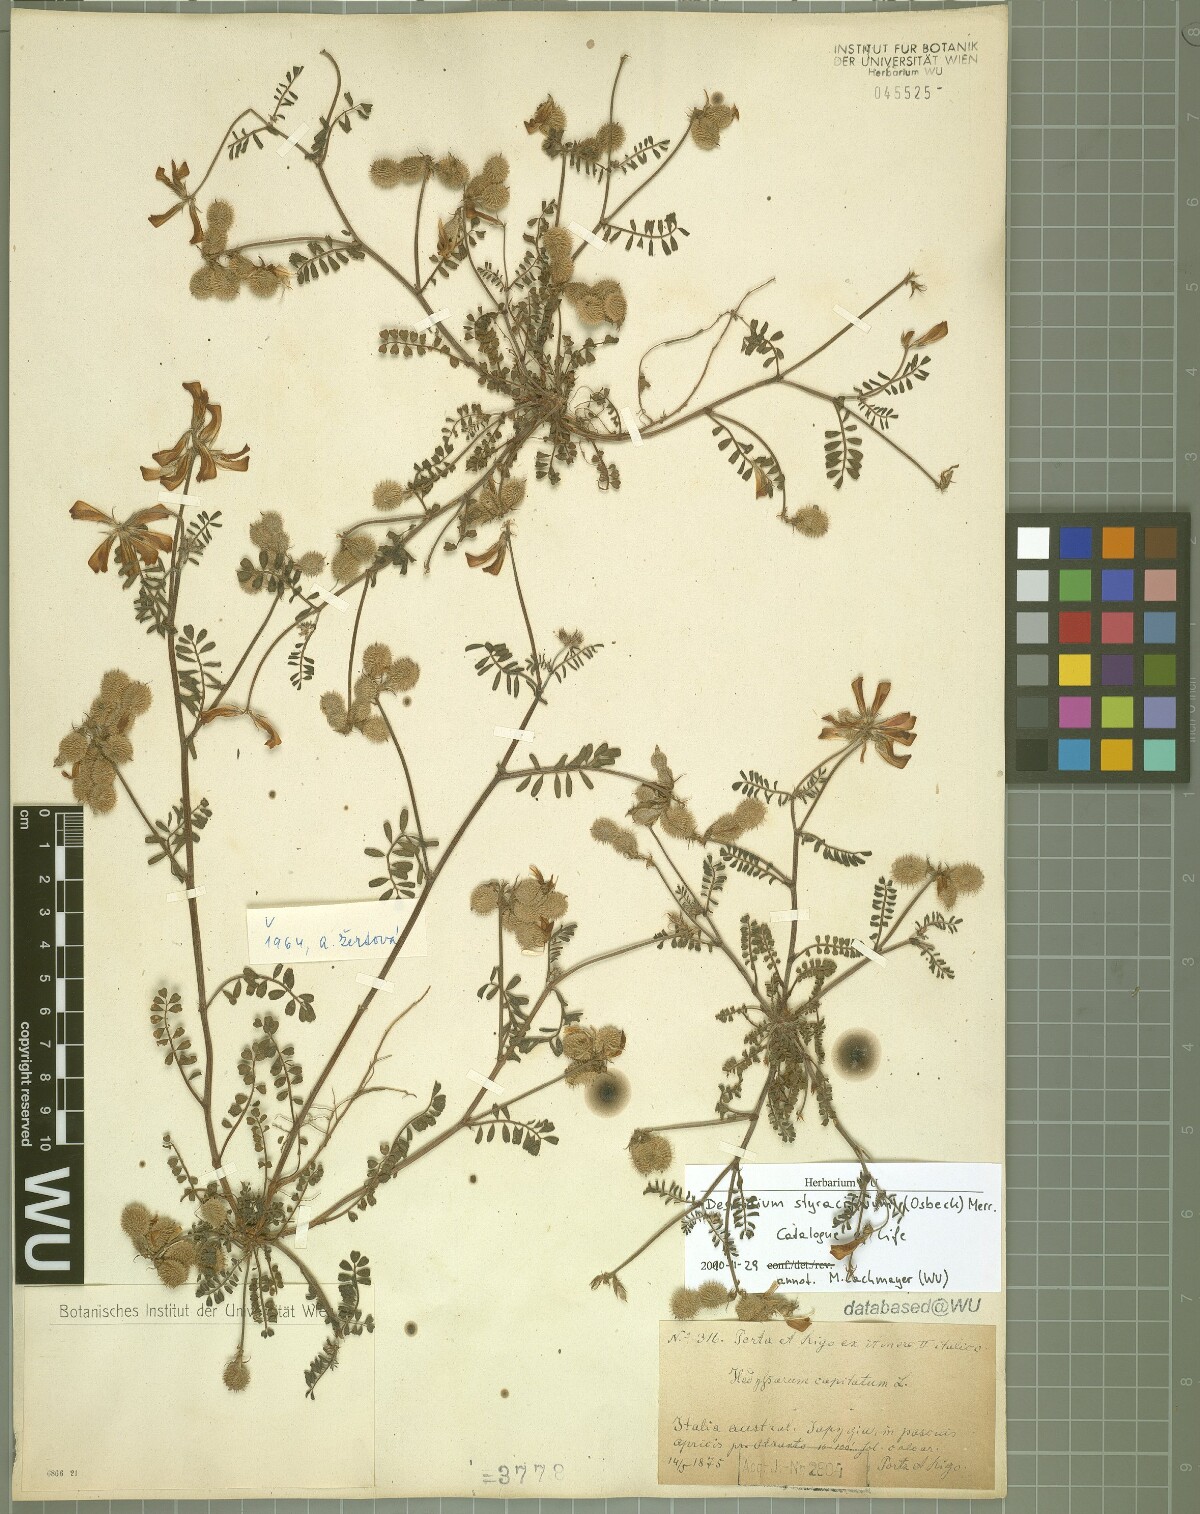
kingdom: Plantae
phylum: Tracheophyta
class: Magnoliopsida
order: Fabales
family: Fabaceae
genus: Grona
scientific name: Grona styracifolia
